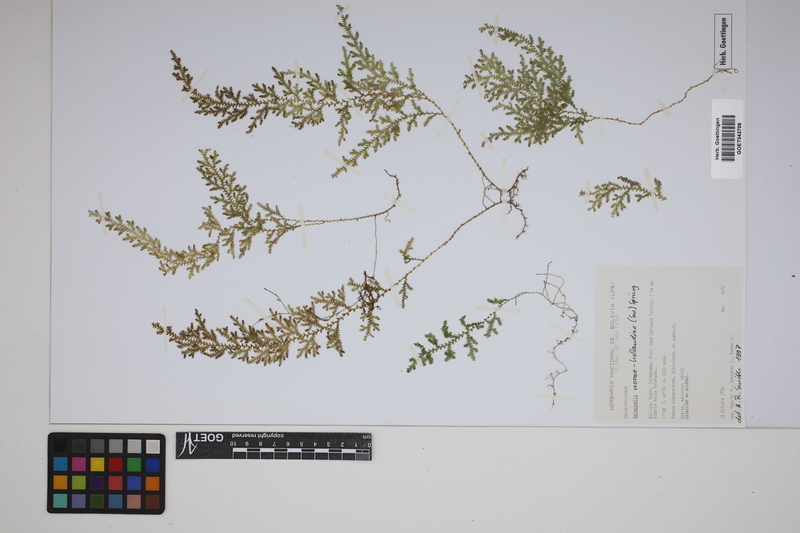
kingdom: Plantae
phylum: Tracheophyta
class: Lycopodiopsida
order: Selaginellales
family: Selaginellaceae
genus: Selaginella
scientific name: Selaginella novae-hollandiae
